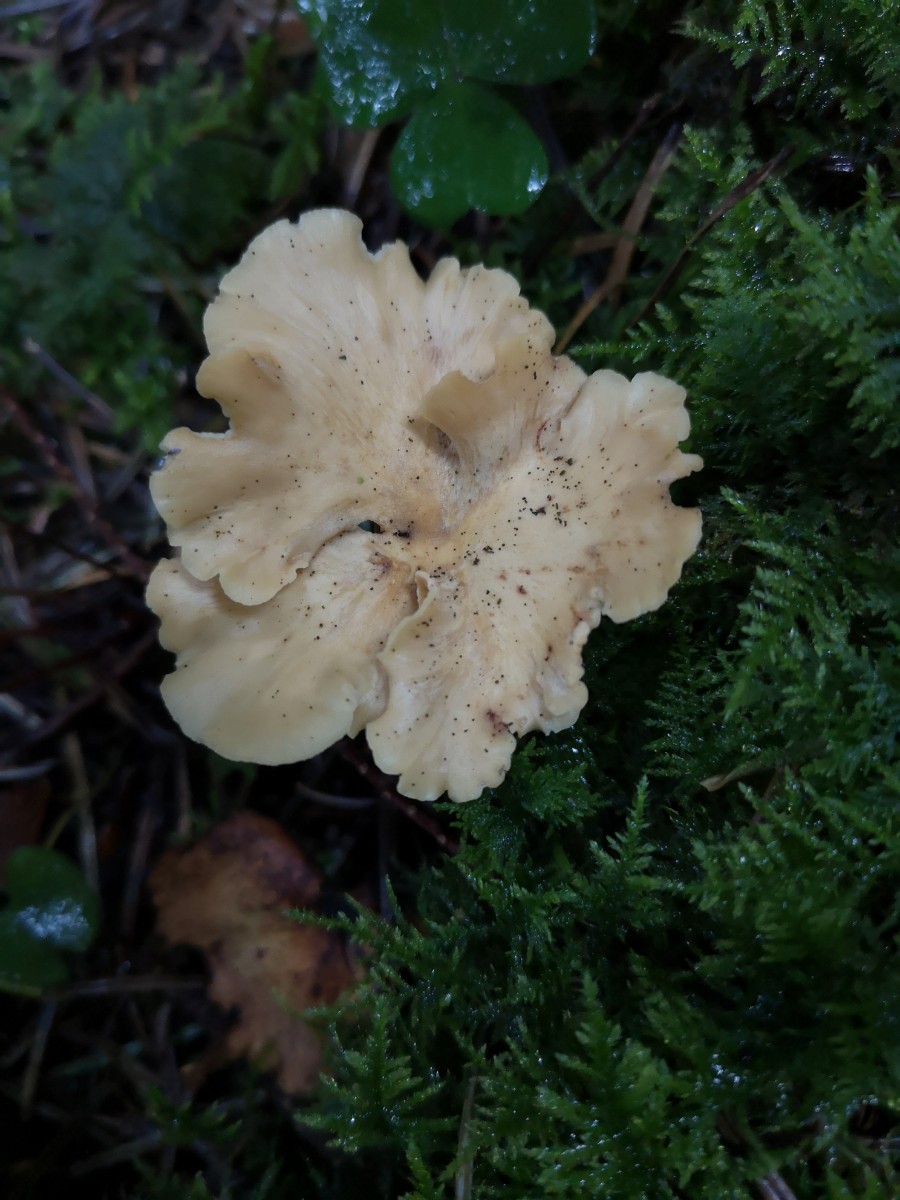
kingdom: Fungi
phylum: Basidiomycota
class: Agaricomycetes
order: Polyporales
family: Polyporaceae
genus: Cerioporus
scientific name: Cerioporus varius
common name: foranderlig stilkporesvamp
